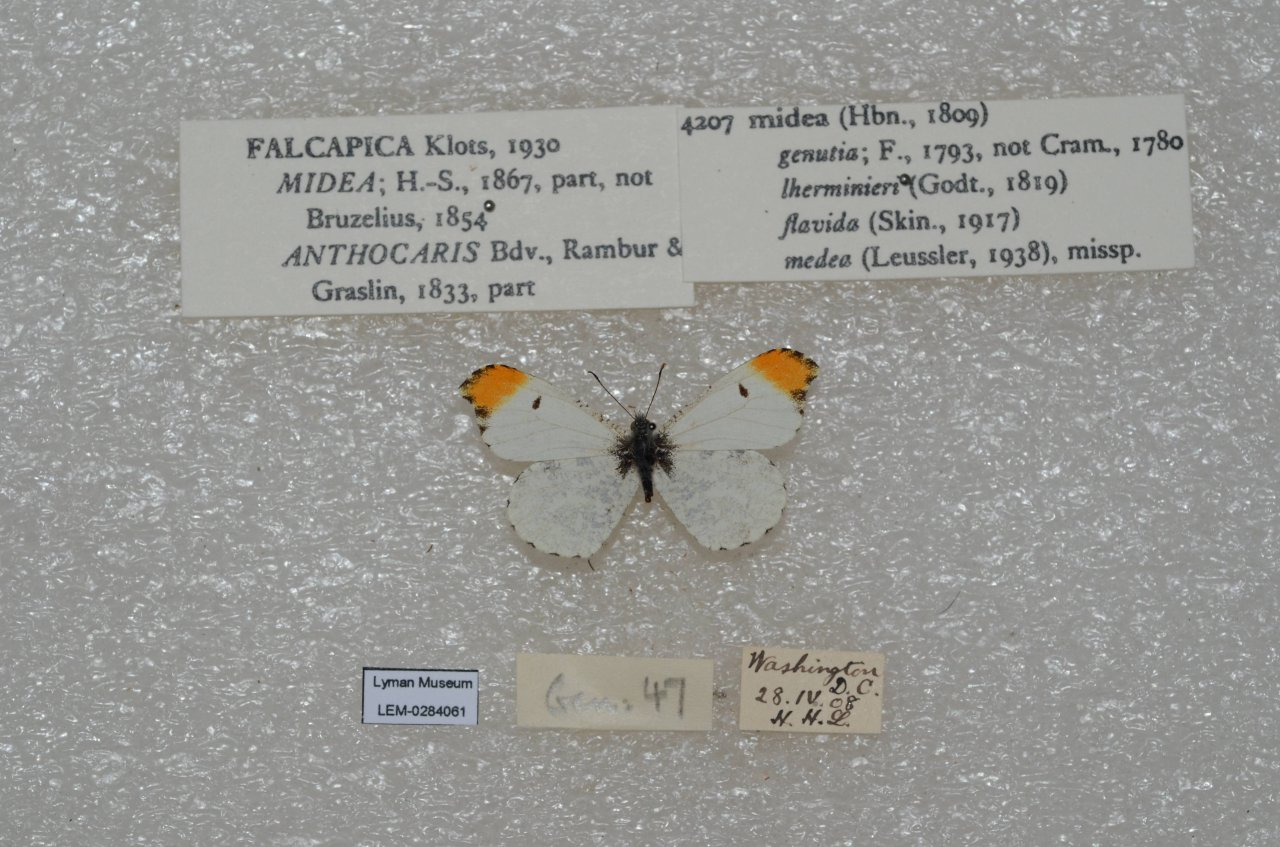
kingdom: Animalia
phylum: Arthropoda
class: Insecta
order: Lepidoptera
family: Pieridae
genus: Anthocharis
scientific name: Anthocharis midea
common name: Falcate Orangetip
